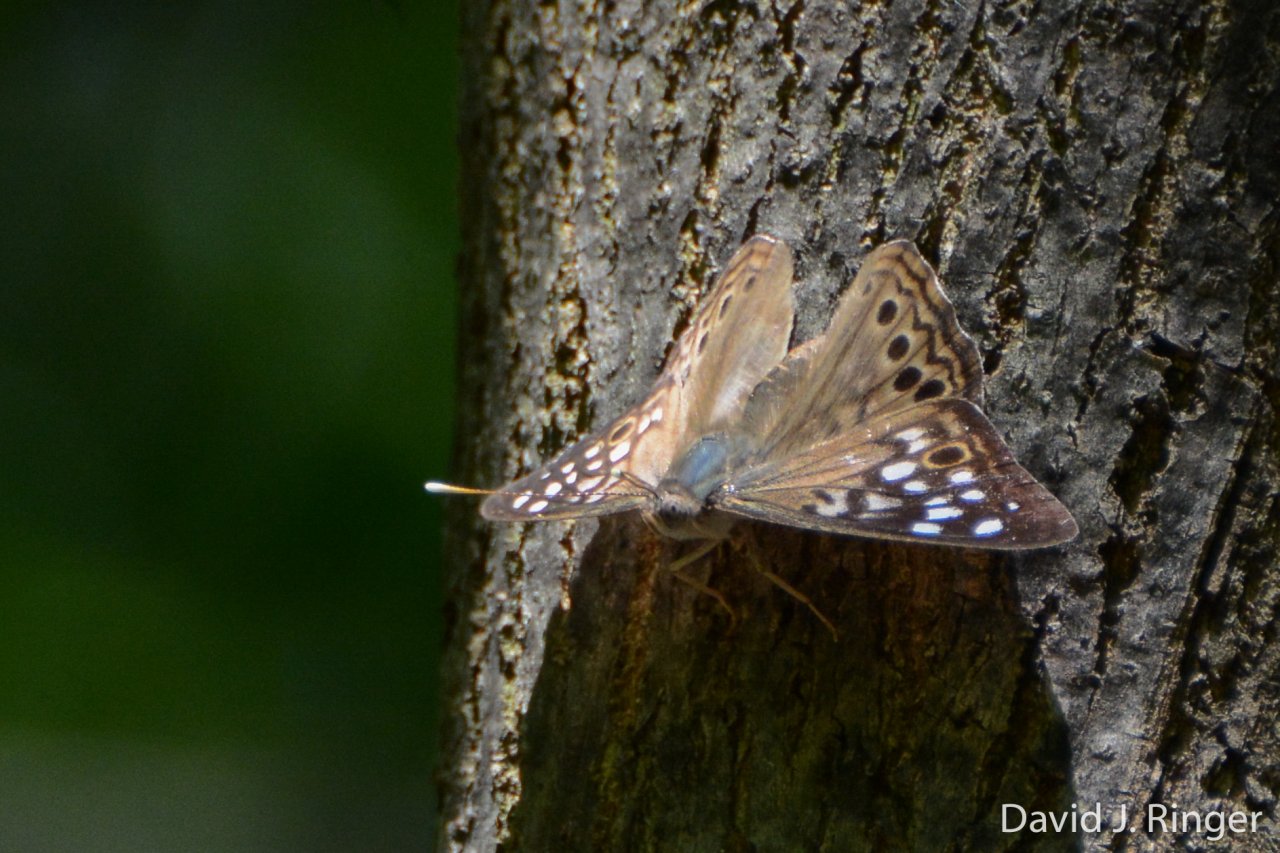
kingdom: Animalia
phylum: Arthropoda
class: Insecta
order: Lepidoptera
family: Nymphalidae
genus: Asterocampa
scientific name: Asterocampa celtis
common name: Hackberry Emperor
